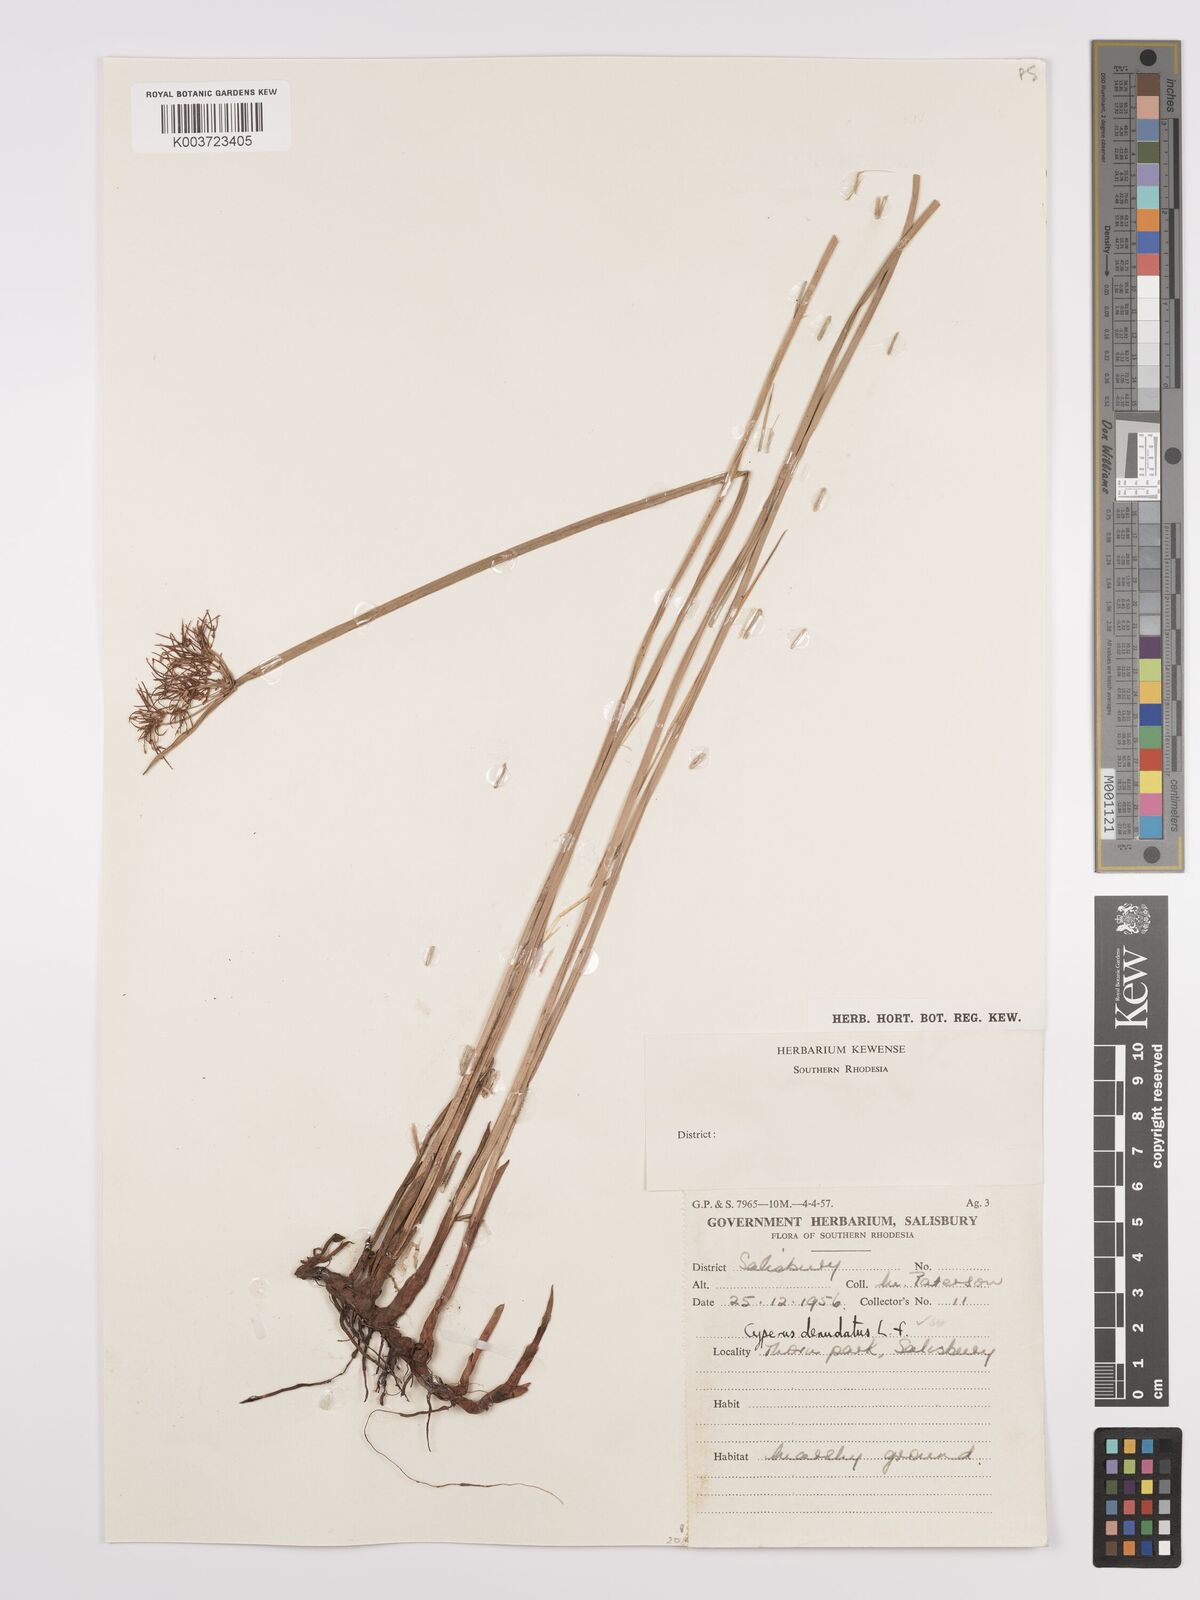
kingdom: Plantae
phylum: Tracheophyta
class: Liliopsida
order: Poales
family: Cyperaceae
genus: Cyperus
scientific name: Cyperus denudatus
